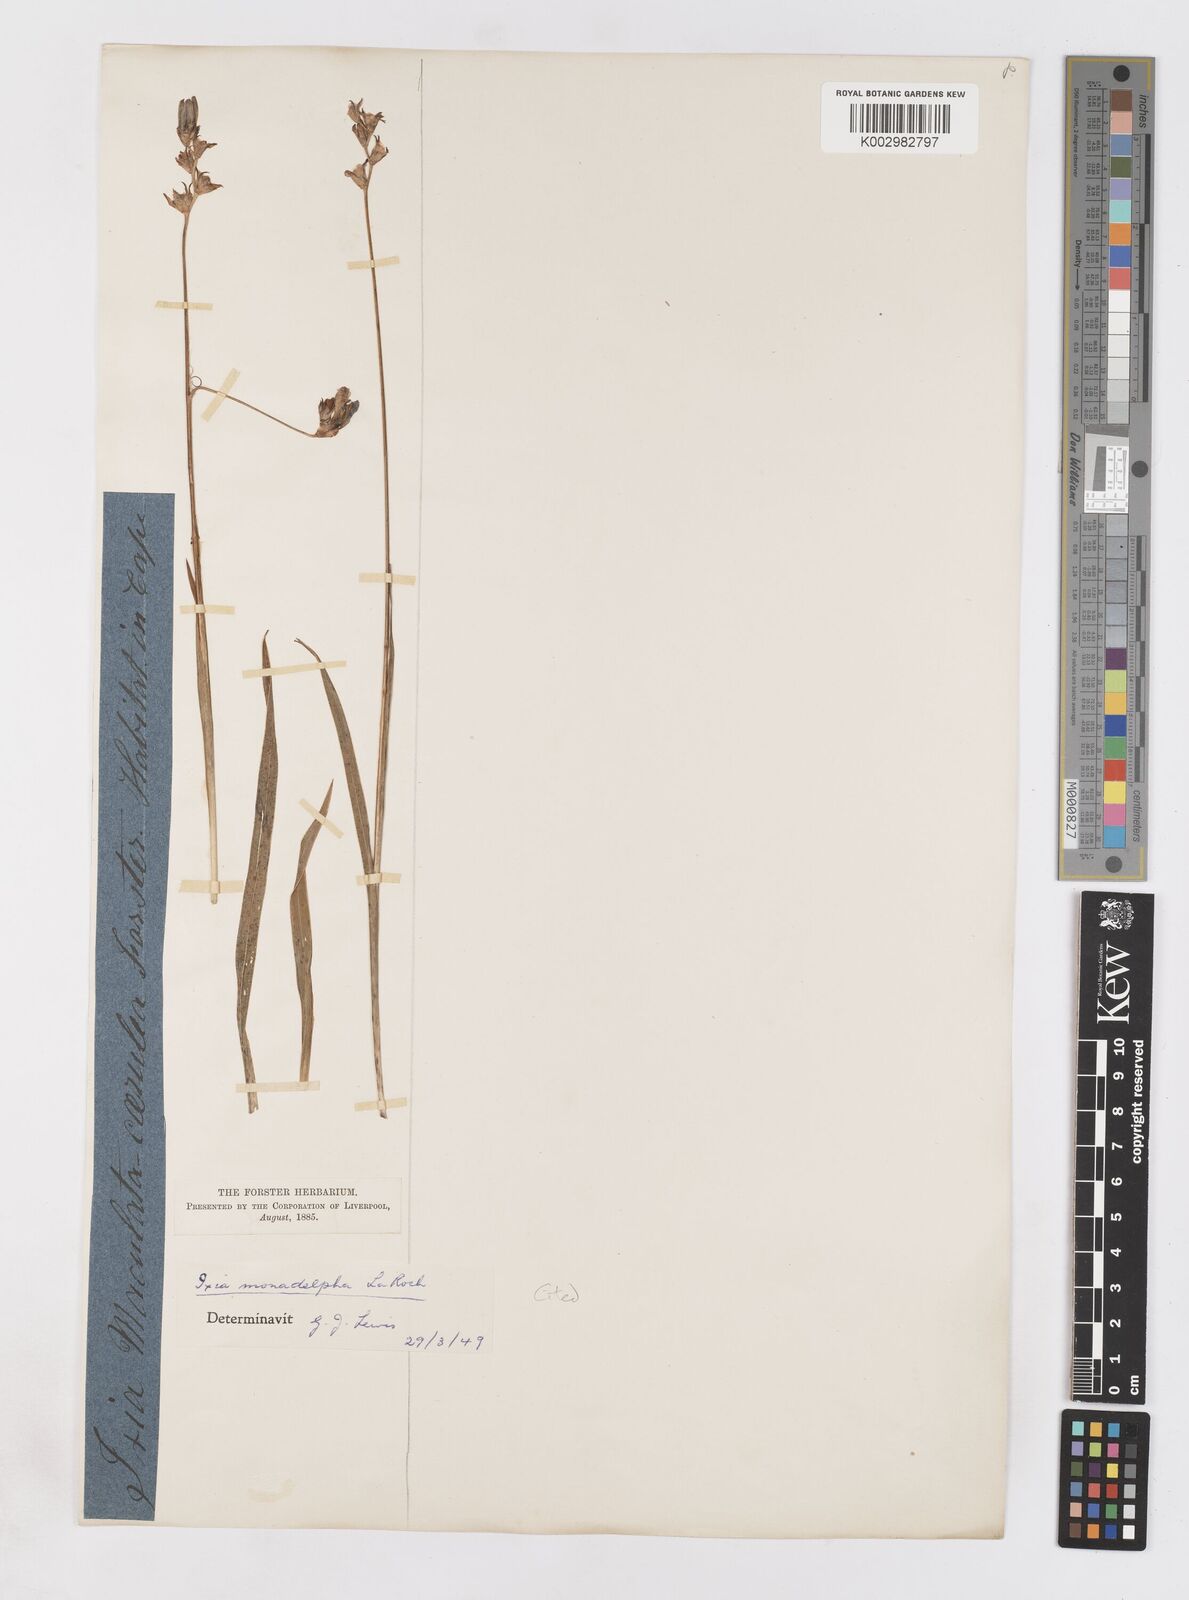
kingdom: Plantae
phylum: Tracheophyta
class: Liliopsida
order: Asparagales
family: Iridaceae
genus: Ixia
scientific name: Ixia monadelpha
